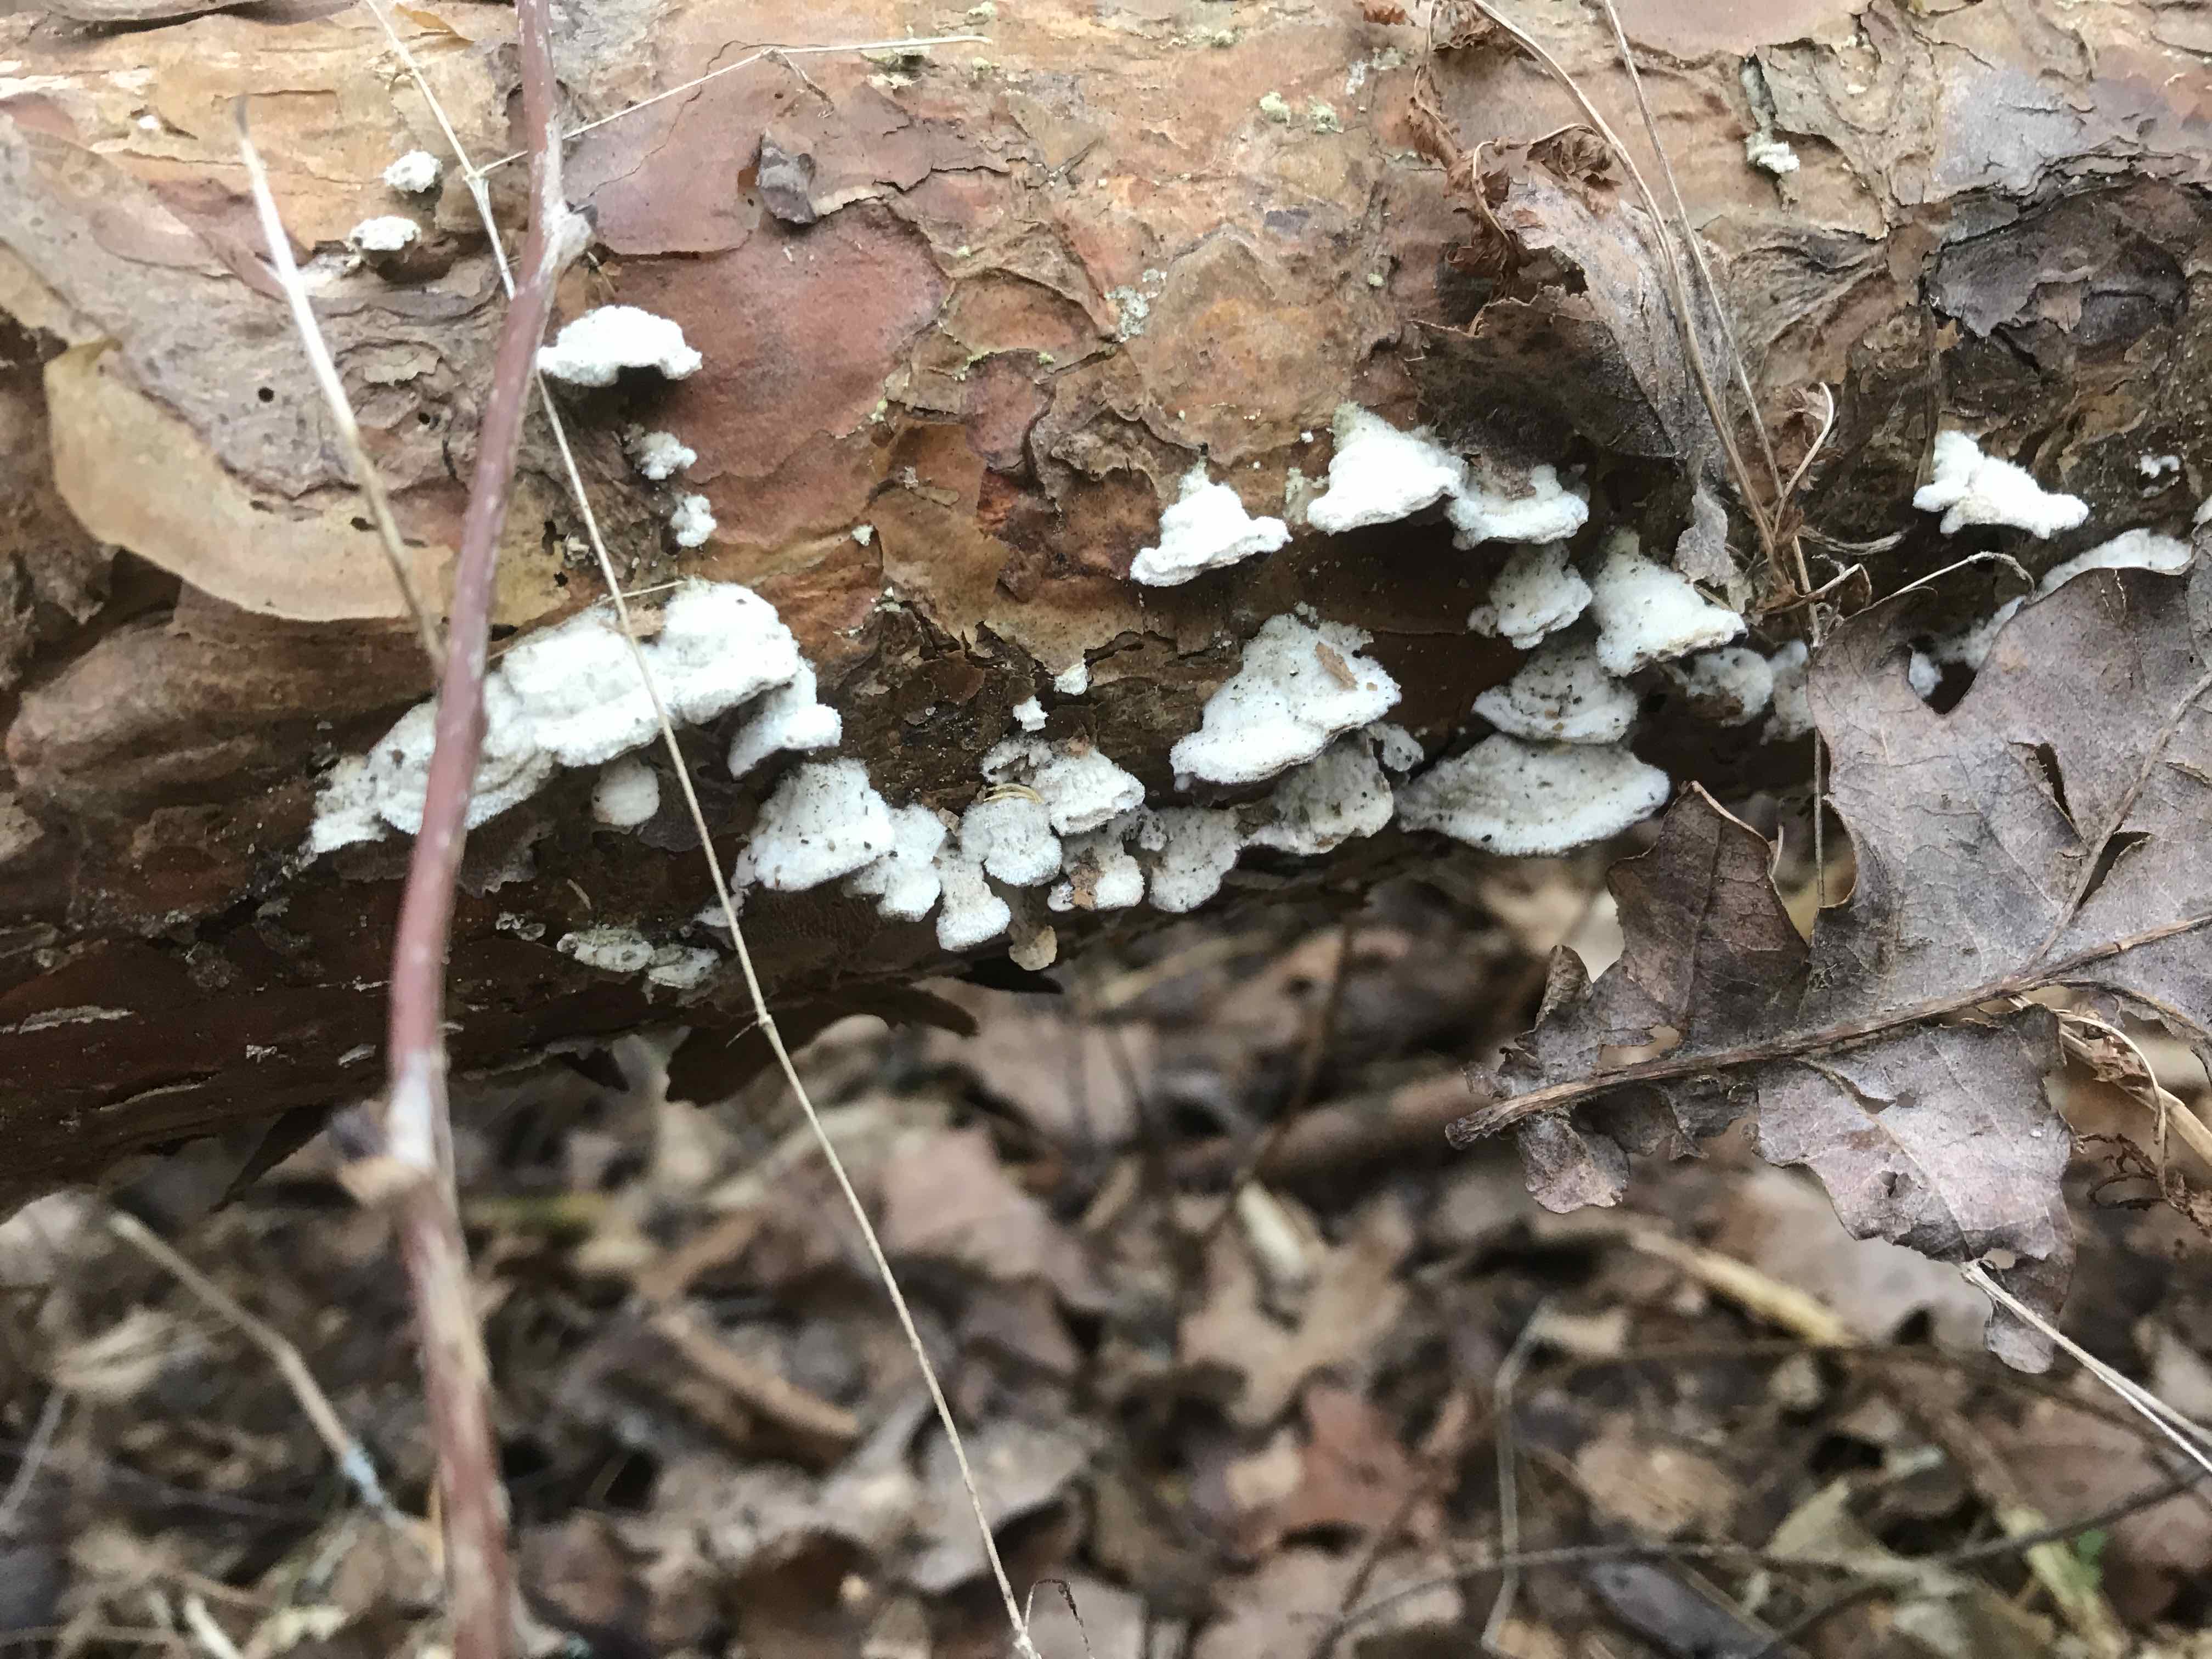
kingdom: Fungi
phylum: Basidiomycota
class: Agaricomycetes
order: Hymenochaetales
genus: Trichaptum
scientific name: Trichaptum fuscoviolaceum
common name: tandet violporesvamp
